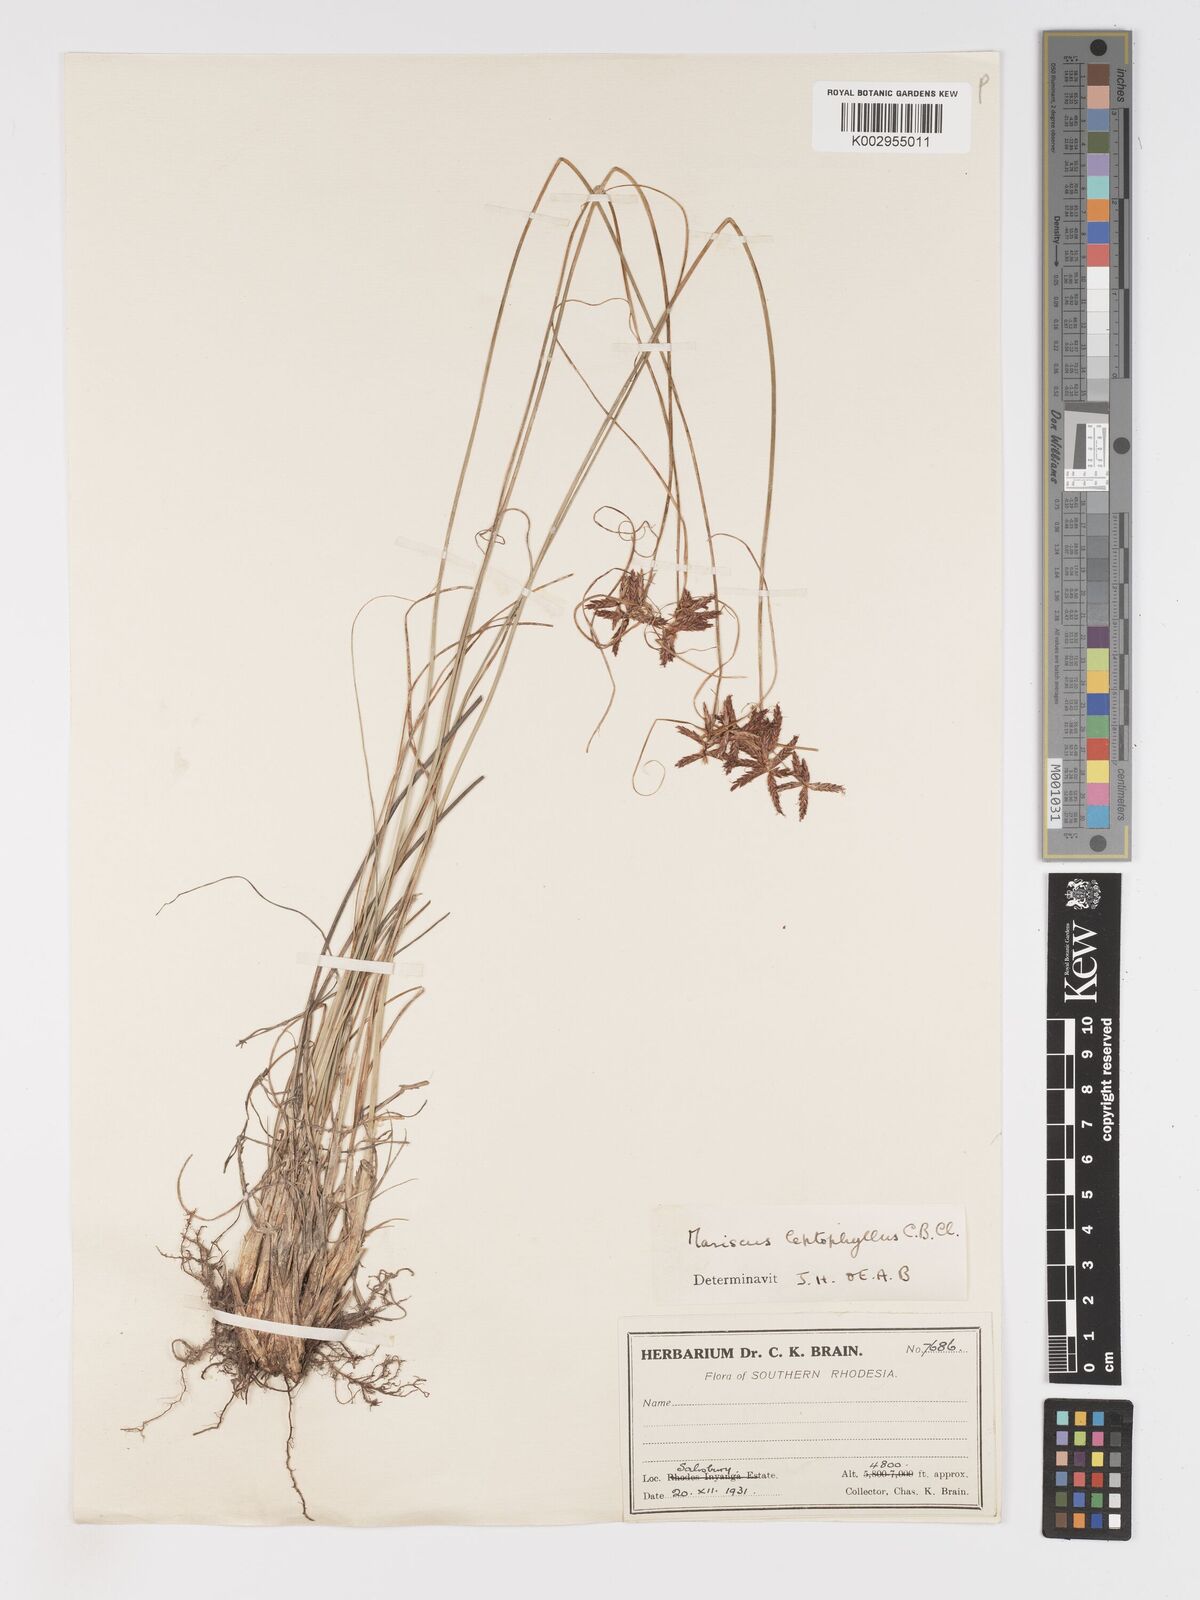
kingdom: Plantae
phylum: Tracheophyta
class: Liliopsida
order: Poales
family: Cyperaceae
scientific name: Cyperaceae
